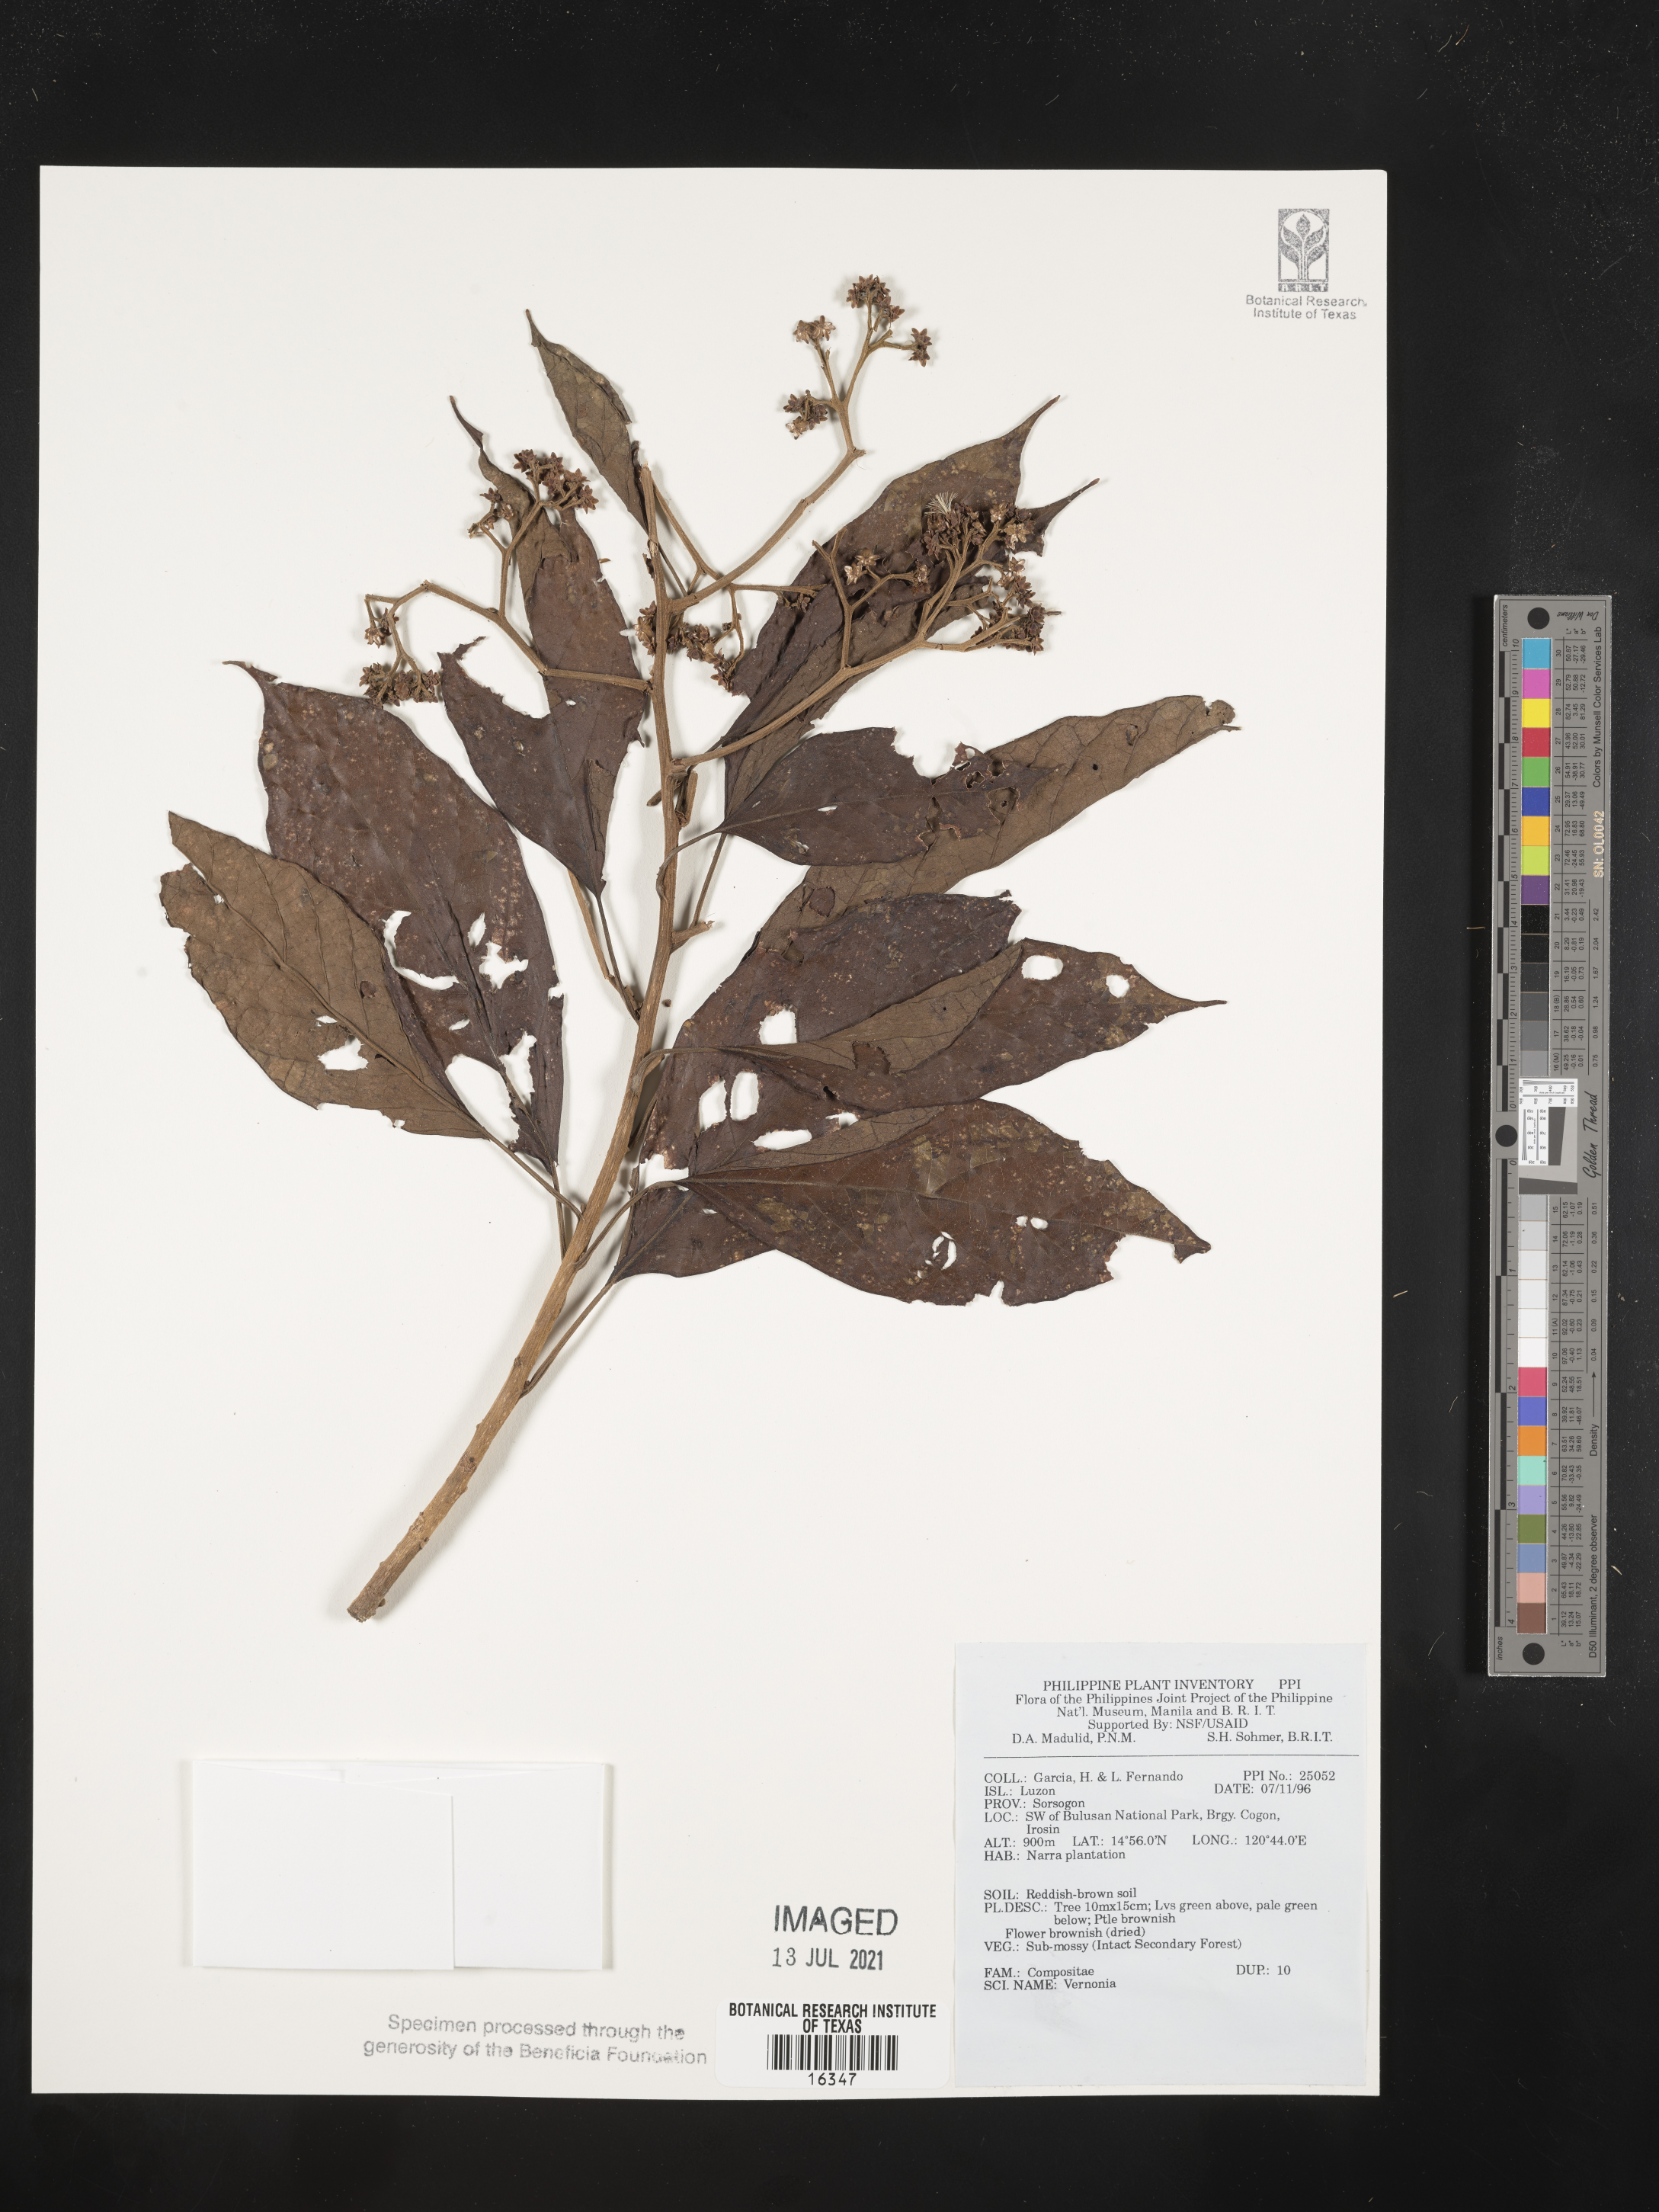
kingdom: Plantae
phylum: Tracheophyta
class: Magnoliopsida
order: Asterales
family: Asteraceae
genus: Vernonia
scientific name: Vernonia
